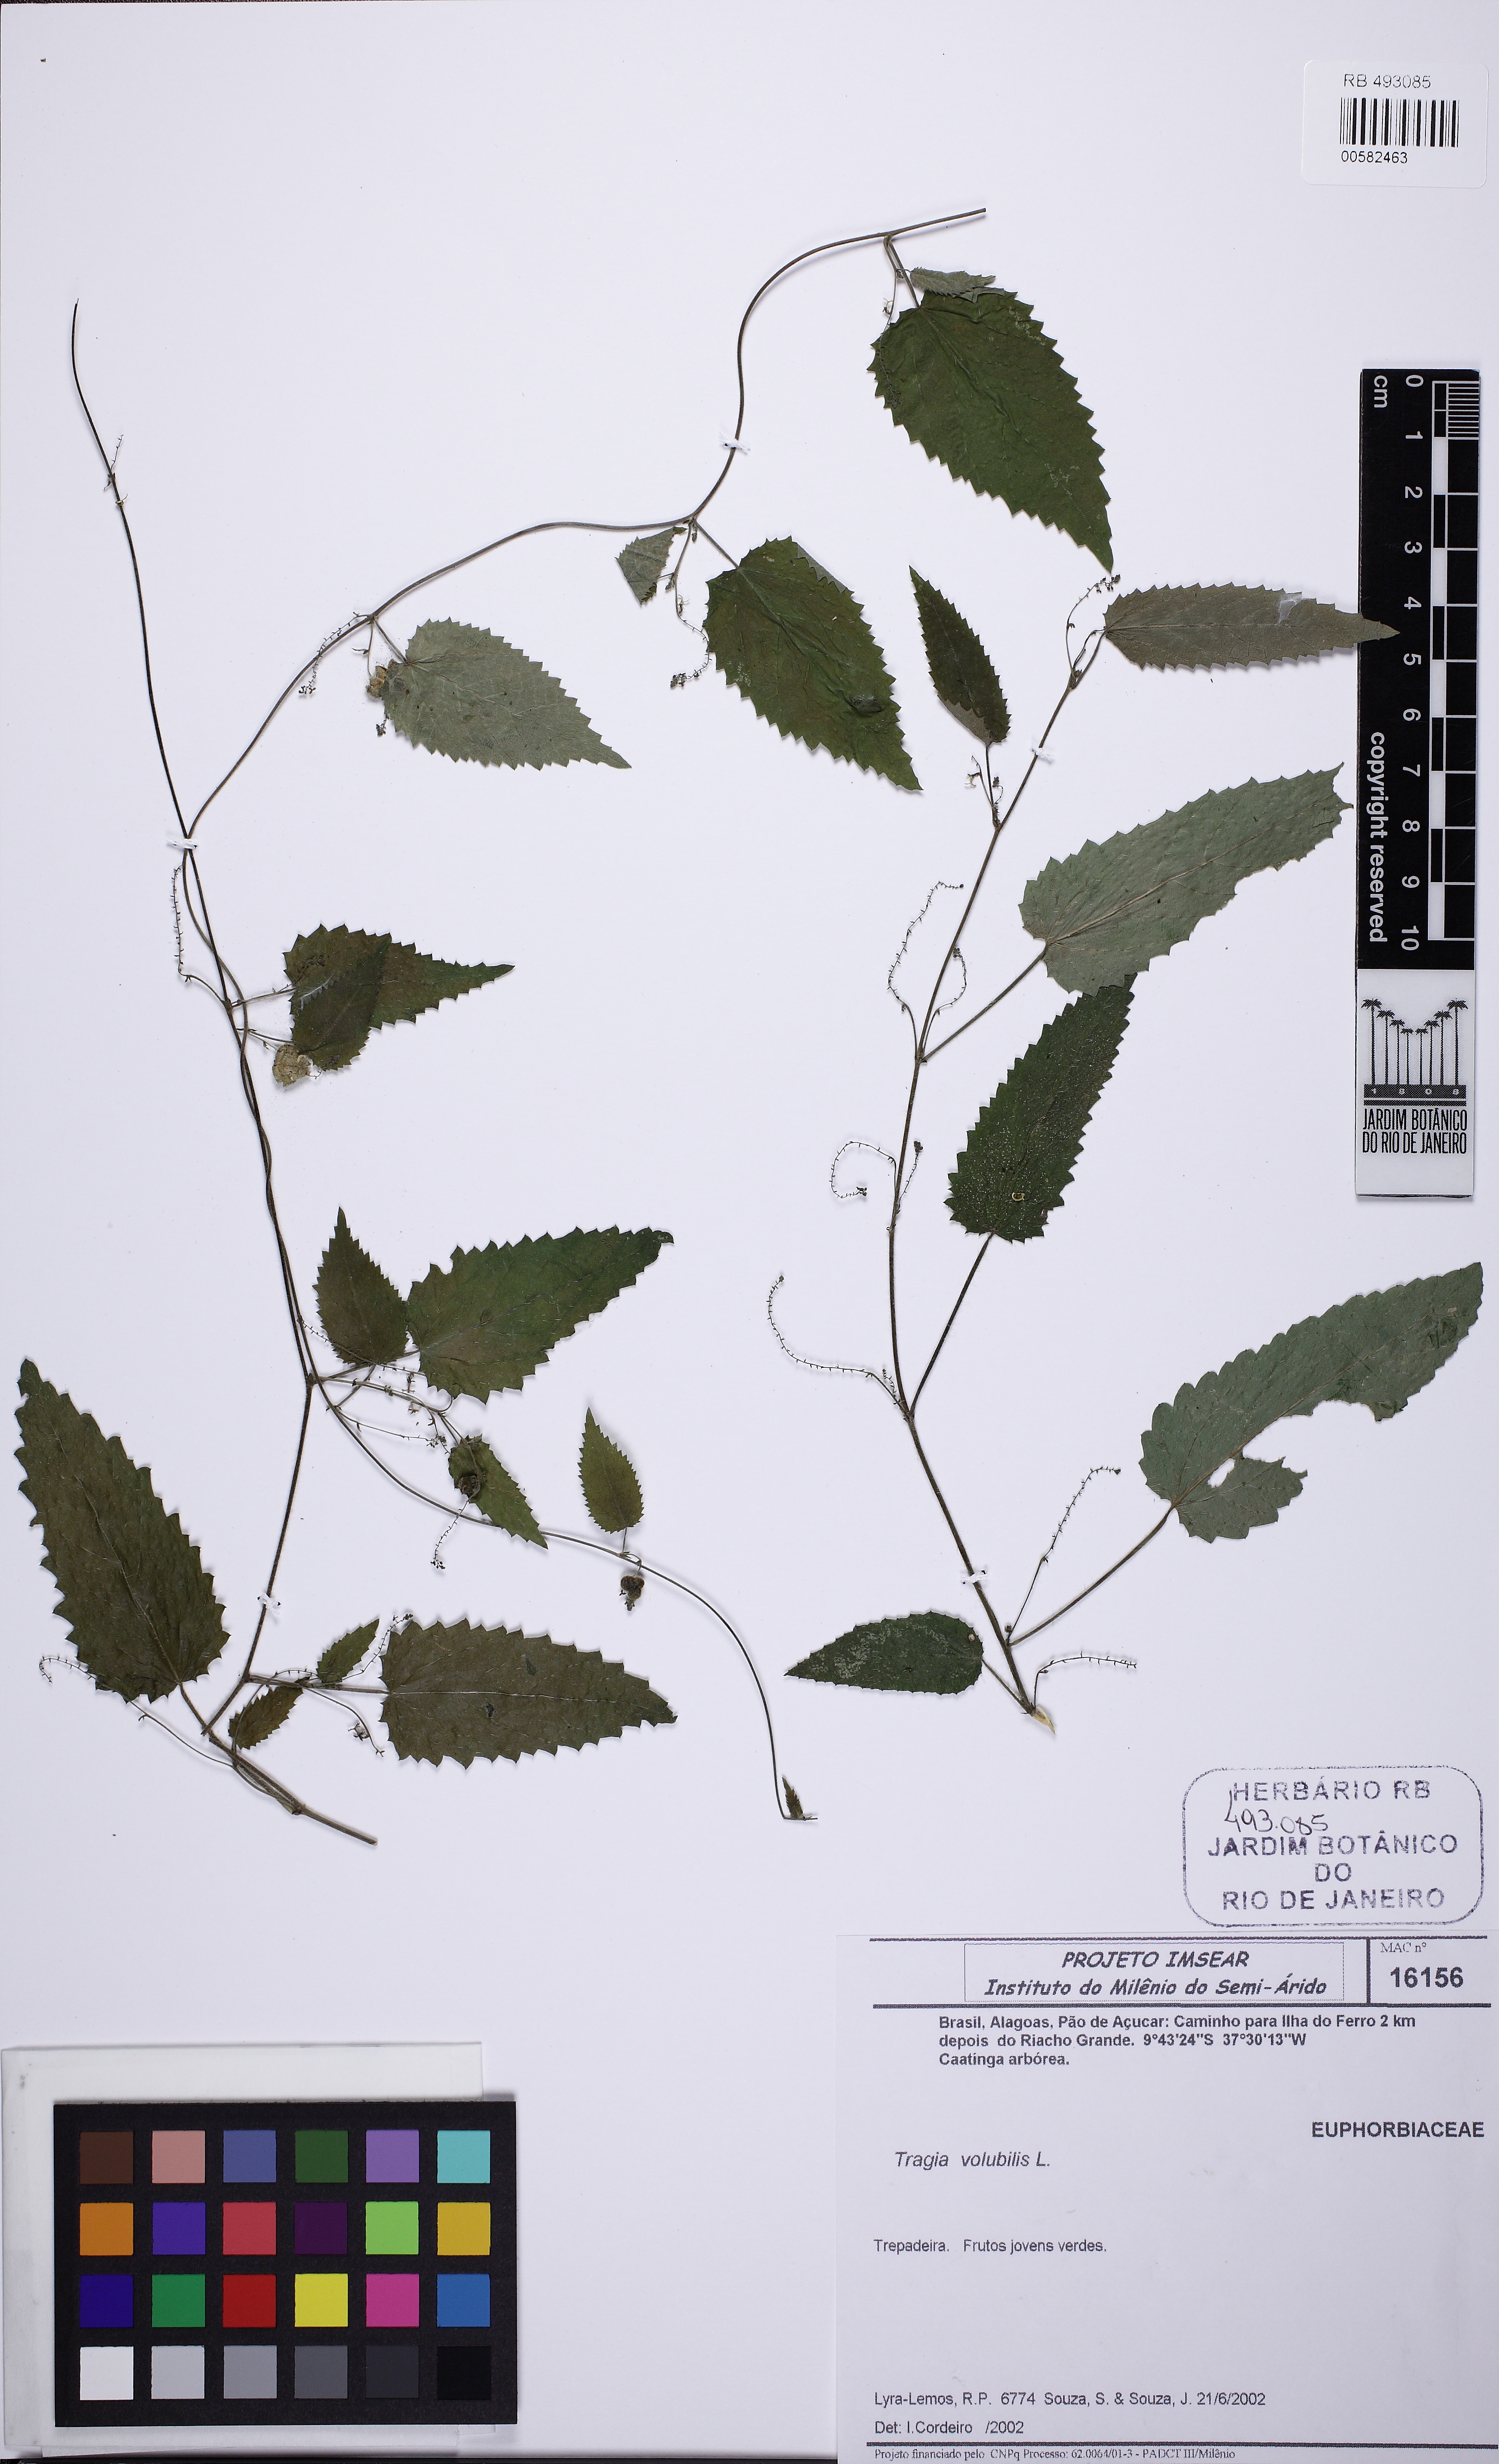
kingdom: Plantae
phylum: Tracheophyta
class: Magnoliopsida
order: Malpighiales
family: Euphorbiaceae
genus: Tragia
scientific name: Tragia volubilis
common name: Twining cow-itch
